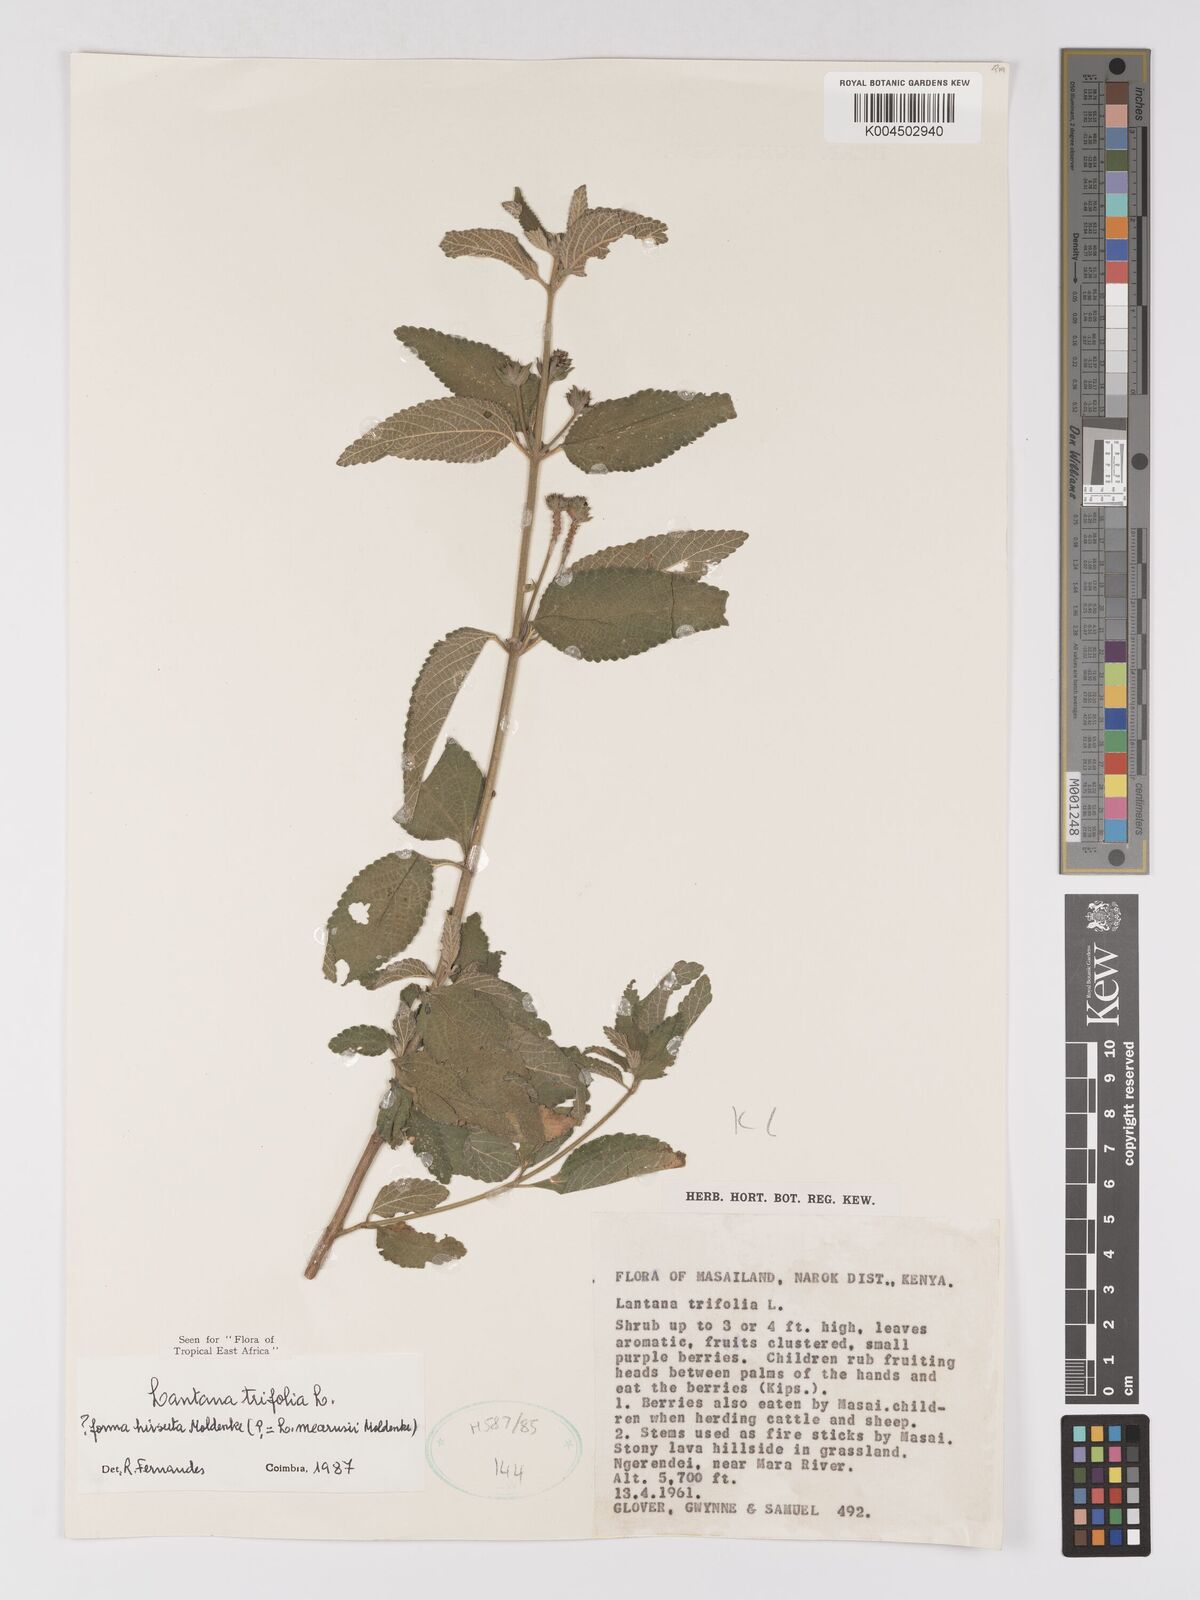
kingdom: Plantae
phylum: Tracheophyta
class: Magnoliopsida
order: Lamiales
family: Verbenaceae
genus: Lantana
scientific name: Lantana trifolia
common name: Sweet-sage
